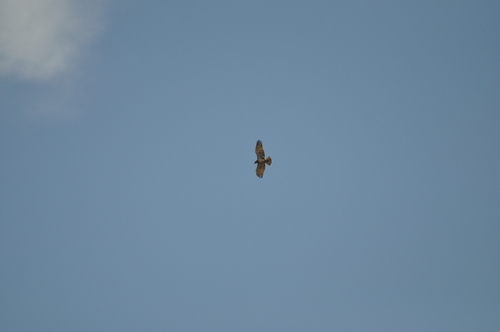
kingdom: Animalia
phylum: Chordata
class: Aves
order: Accipitriformes
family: Accipitridae
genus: Circaetus
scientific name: Circaetus gallicus
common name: Short-toed snake eagle
